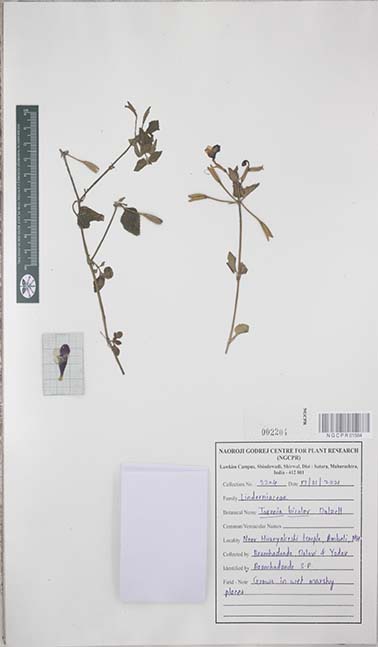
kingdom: Plantae
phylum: Tracheophyta
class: Magnoliopsida
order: Lamiales
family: Linderniaceae
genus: Torenia
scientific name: Torenia bicolor
